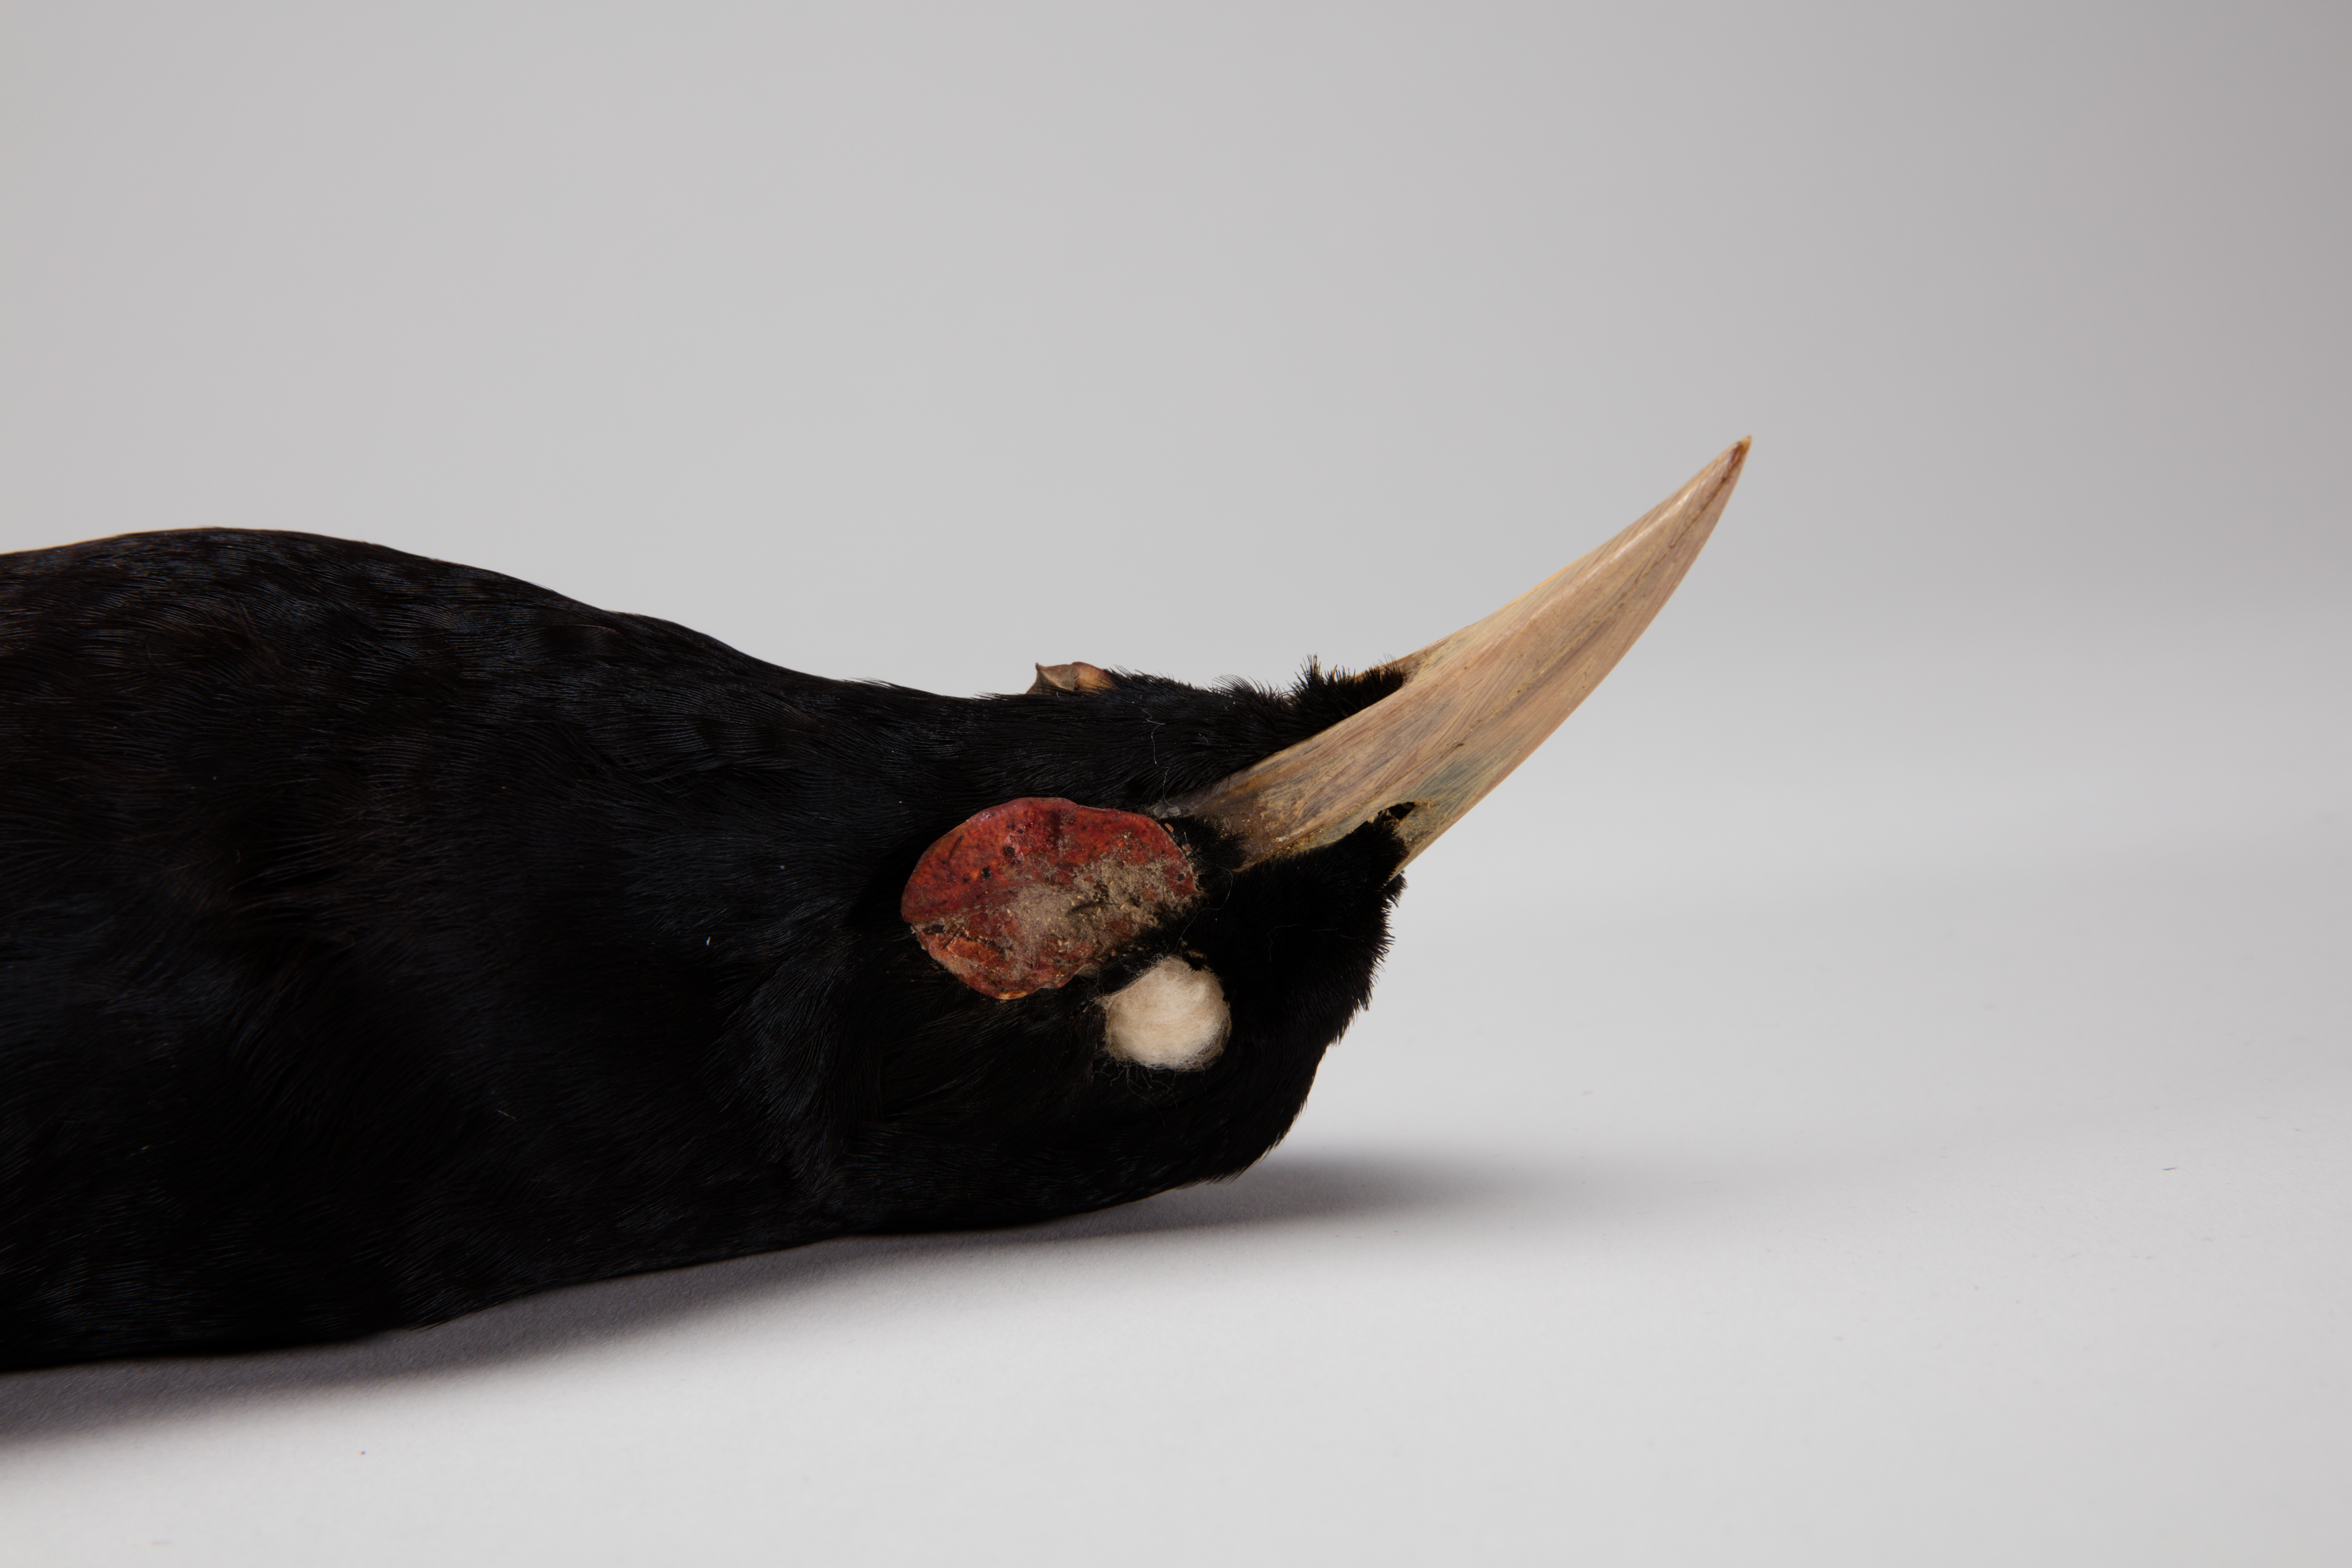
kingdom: Animalia
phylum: Chordata
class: Aves
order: Passeriformes
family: Callaeatidae
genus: Heteralocha
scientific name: Heteralocha acutirostris
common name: Huia
